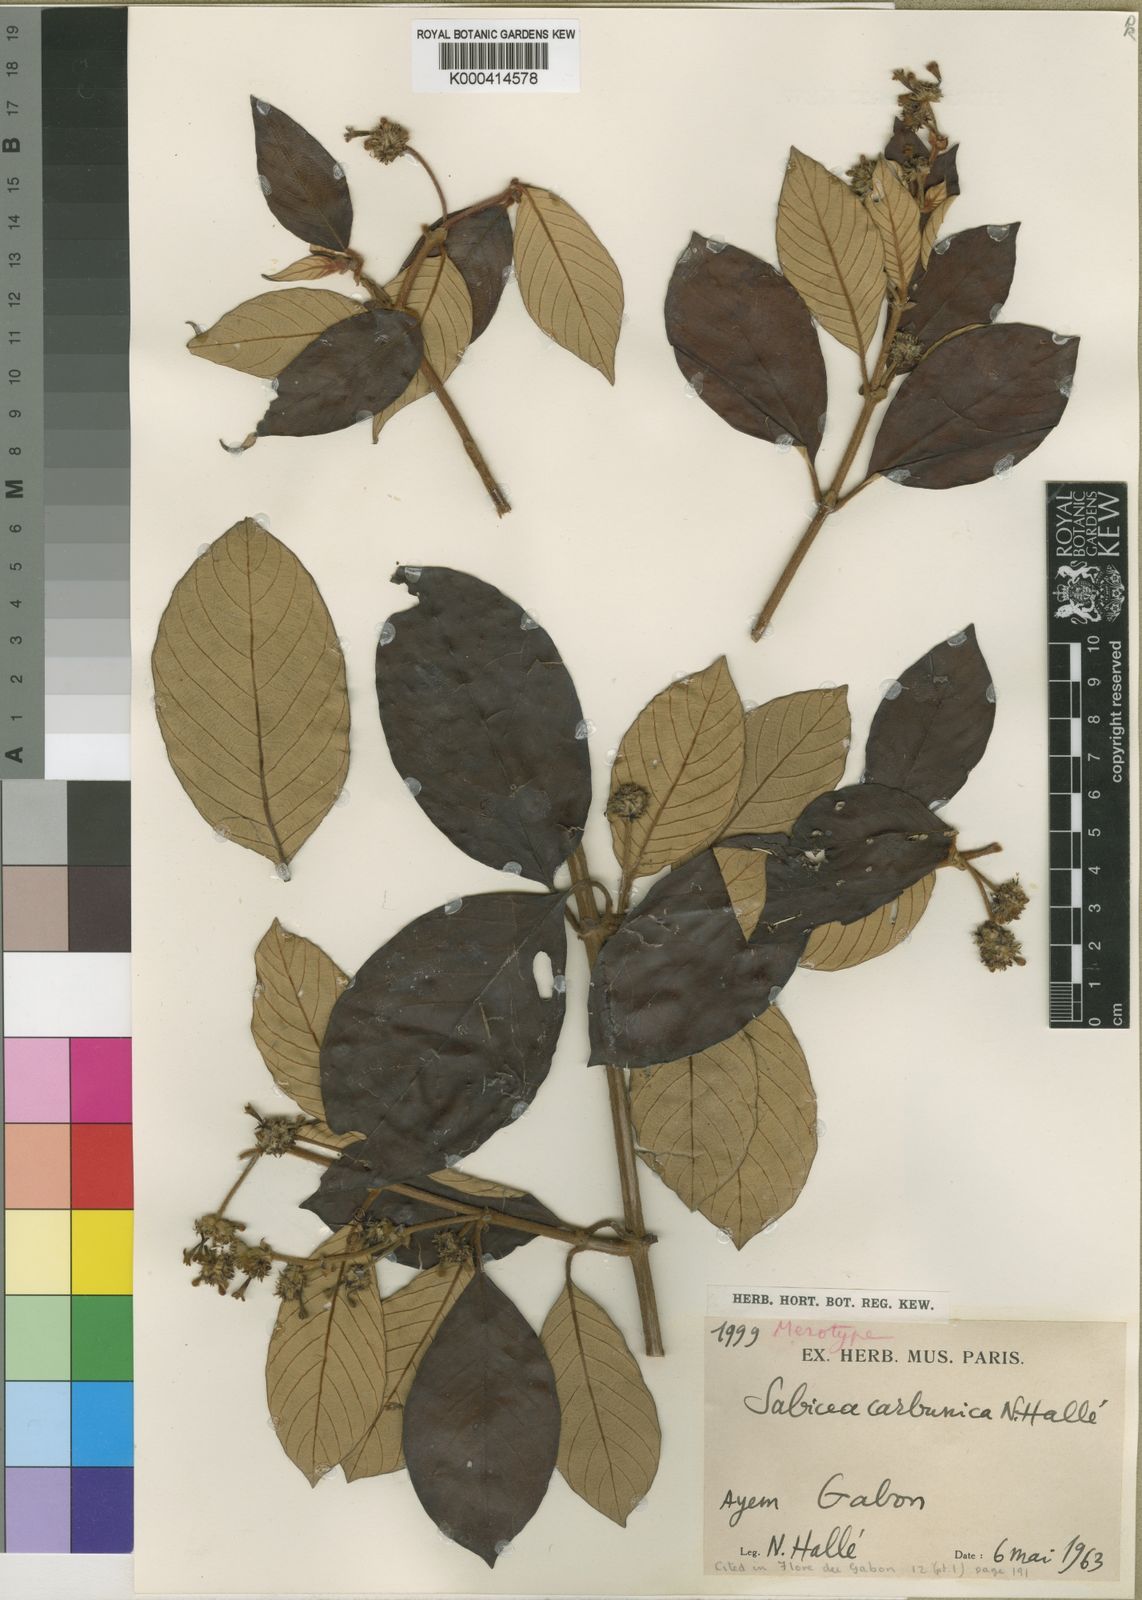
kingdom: Plantae
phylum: Tracheophyta
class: Magnoliopsida
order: Gentianales
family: Rubiaceae
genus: Sabicea
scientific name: Sabicea
